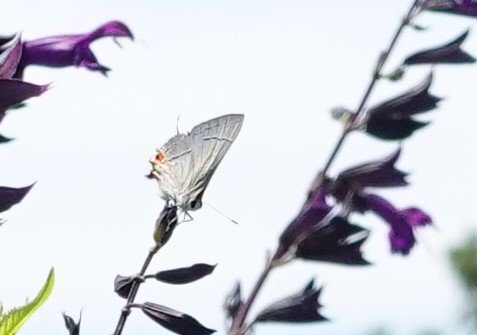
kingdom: Animalia
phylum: Arthropoda
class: Insecta
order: Lepidoptera
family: Lycaenidae
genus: Strymon
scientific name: Strymon melinus
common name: Gray Hairstreak
